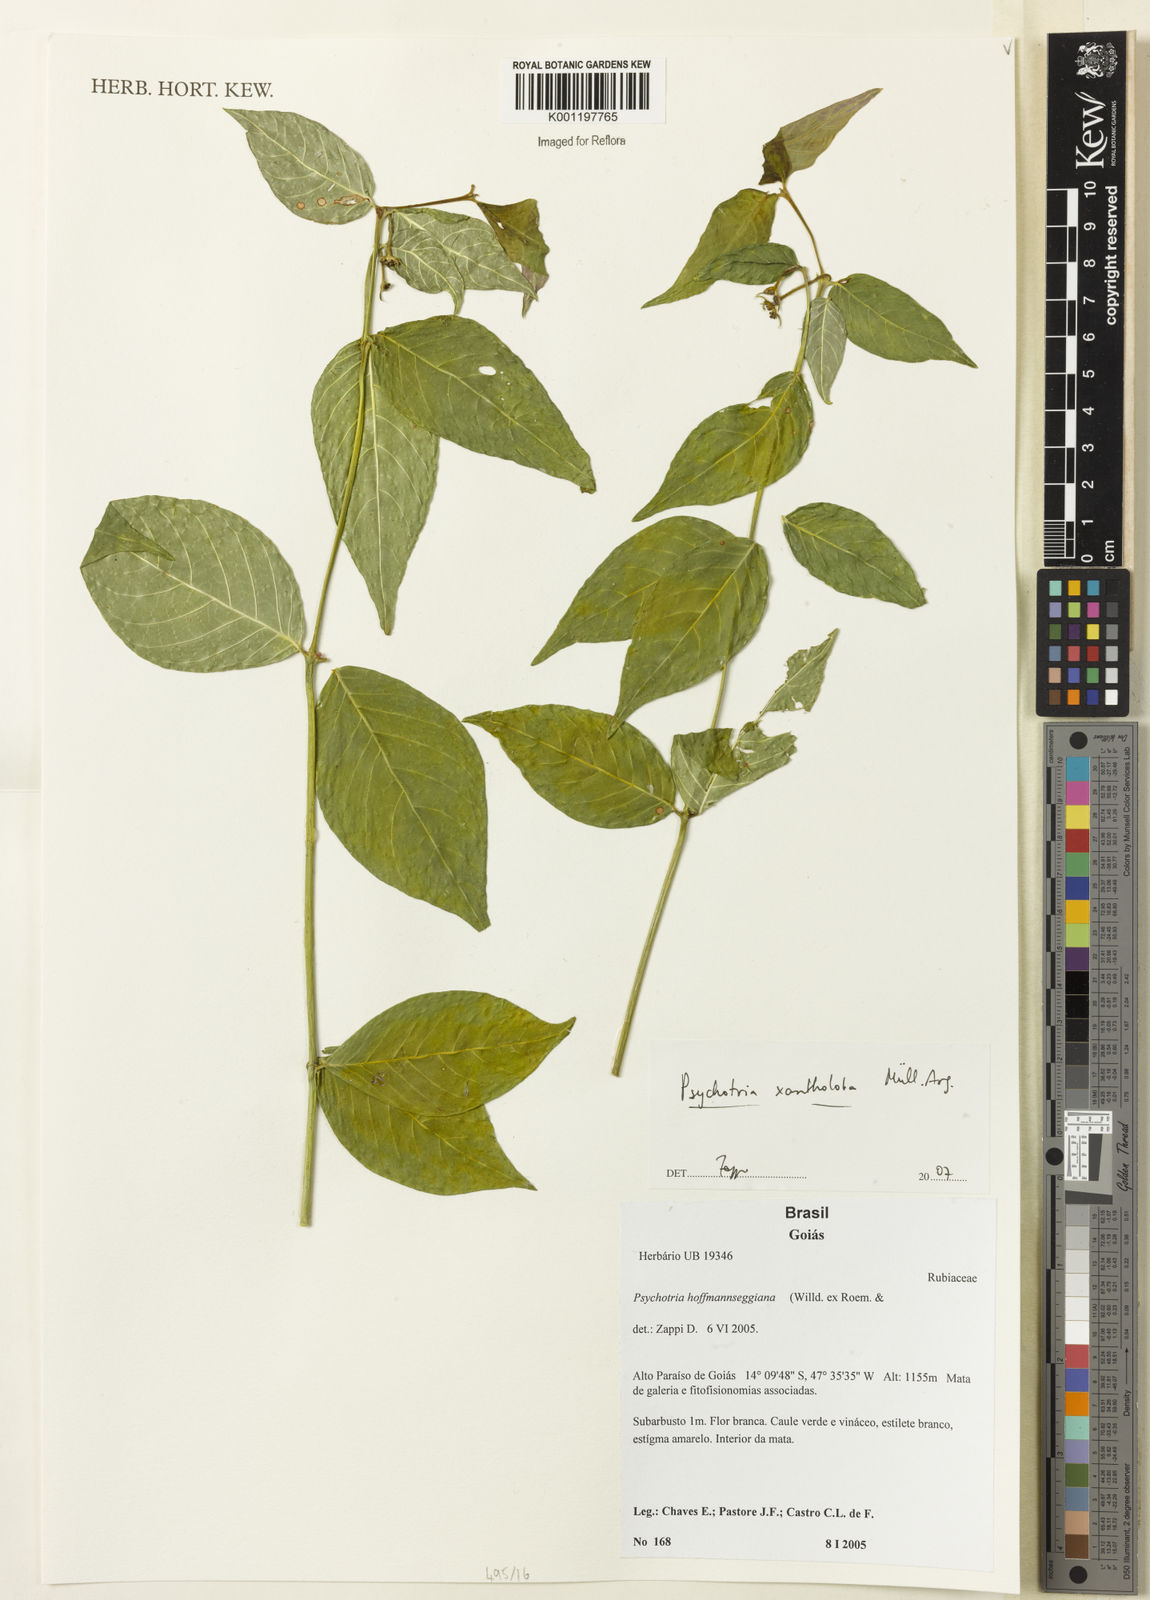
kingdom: Plantae
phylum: Tracheophyta
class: Magnoliopsida
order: Gentianales
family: Rubiaceae
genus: Psychotria
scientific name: Psychotria
